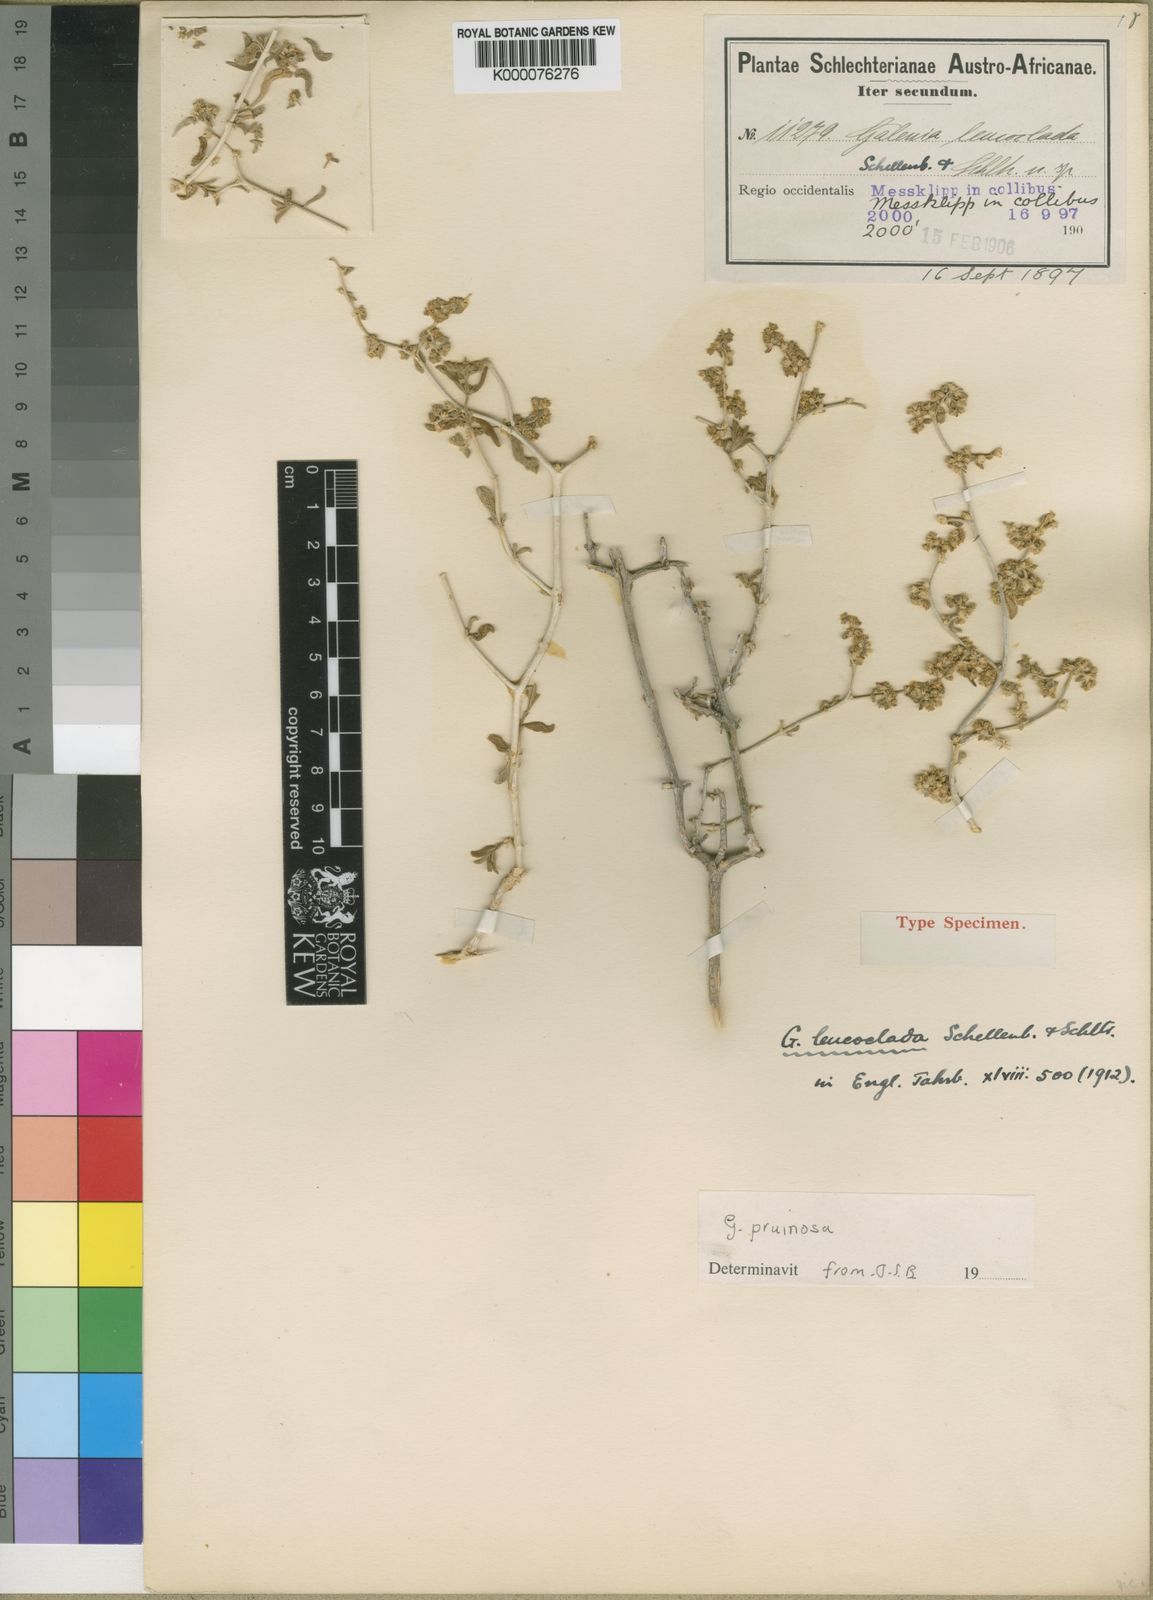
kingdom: Plantae
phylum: Tracheophyta
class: Magnoliopsida
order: Caryophyllales
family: Aizoaceae
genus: Aizoon
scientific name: Aizoon pruinosum
